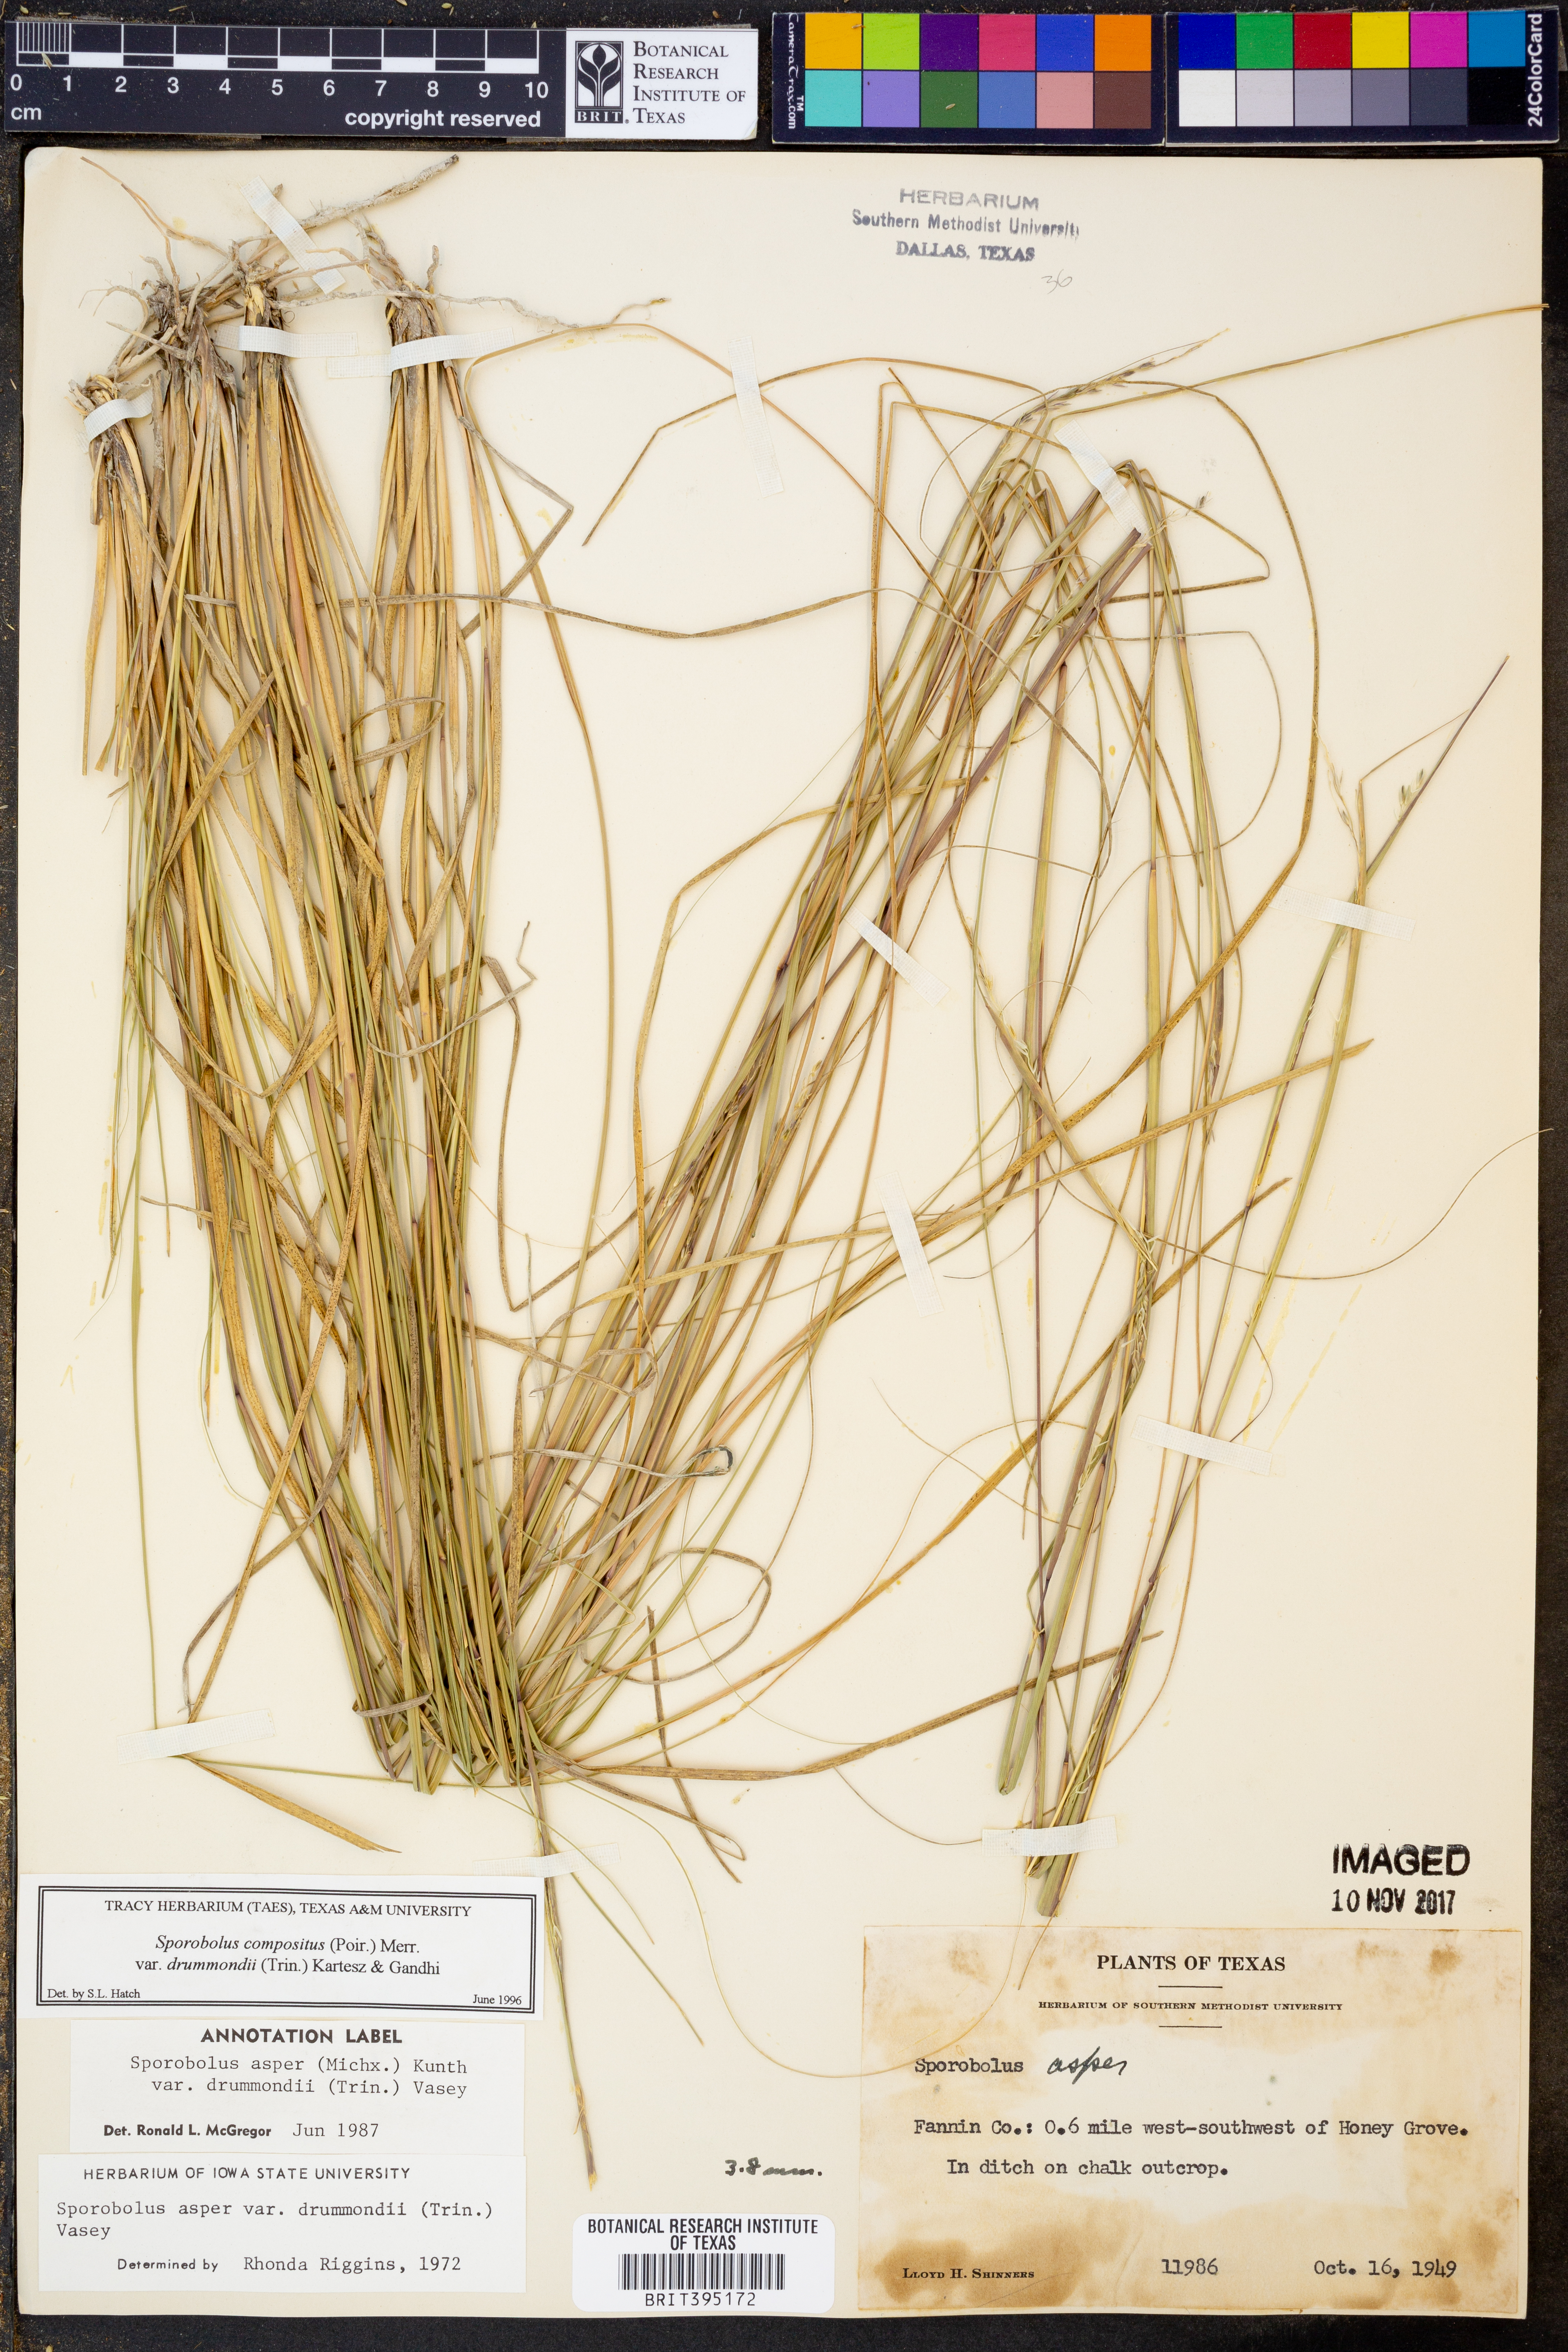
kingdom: Plantae
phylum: Tracheophyta
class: Liliopsida
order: Poales
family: Poaceae
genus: Sporobolus
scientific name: Sporobolus compositus
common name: Rough dropseed
